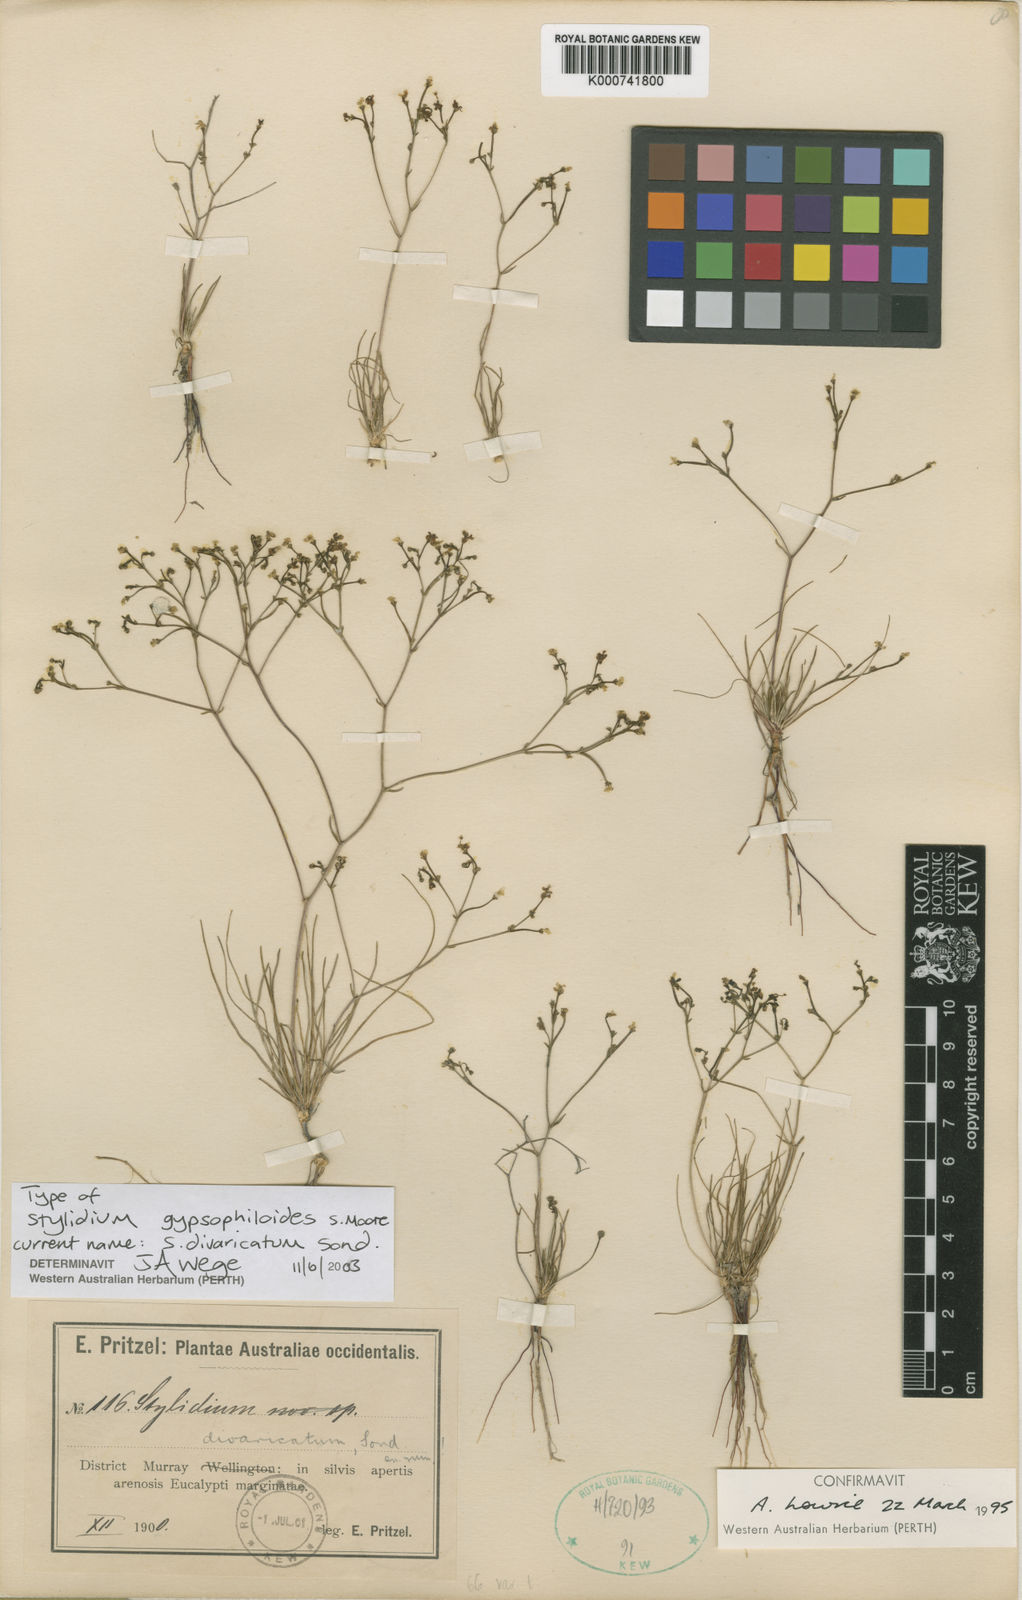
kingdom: Plantae
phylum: Tracheophyta
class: Magnoliopsida
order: Asterales
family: Stylidiaceae
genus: Stylidium
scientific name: Stylidium divaricatum
